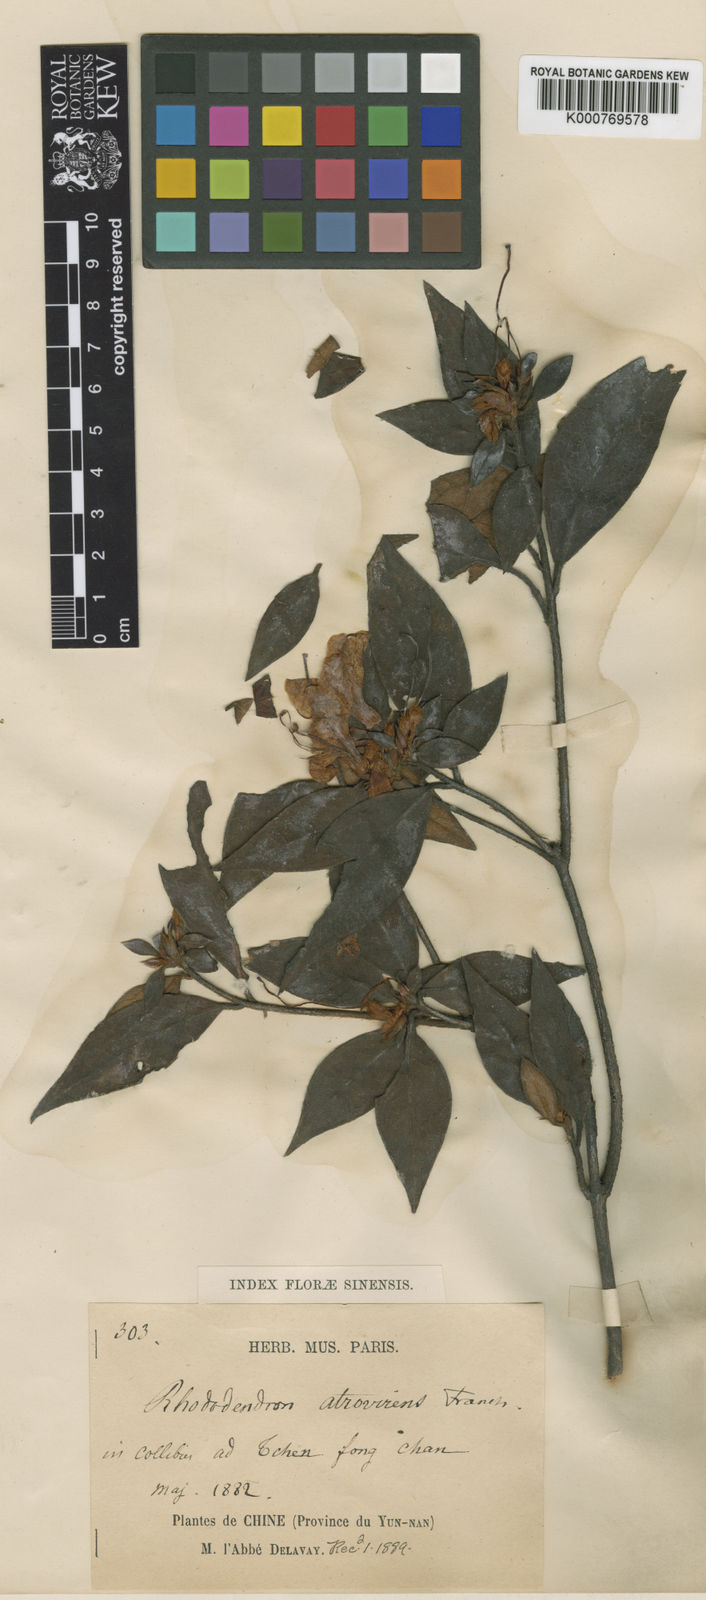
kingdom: Plantae
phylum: Tracheophyta
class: Magnoliopsida
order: Ericales
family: Ericaceae
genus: Rhododendron
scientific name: Rhododendron atrovirens
